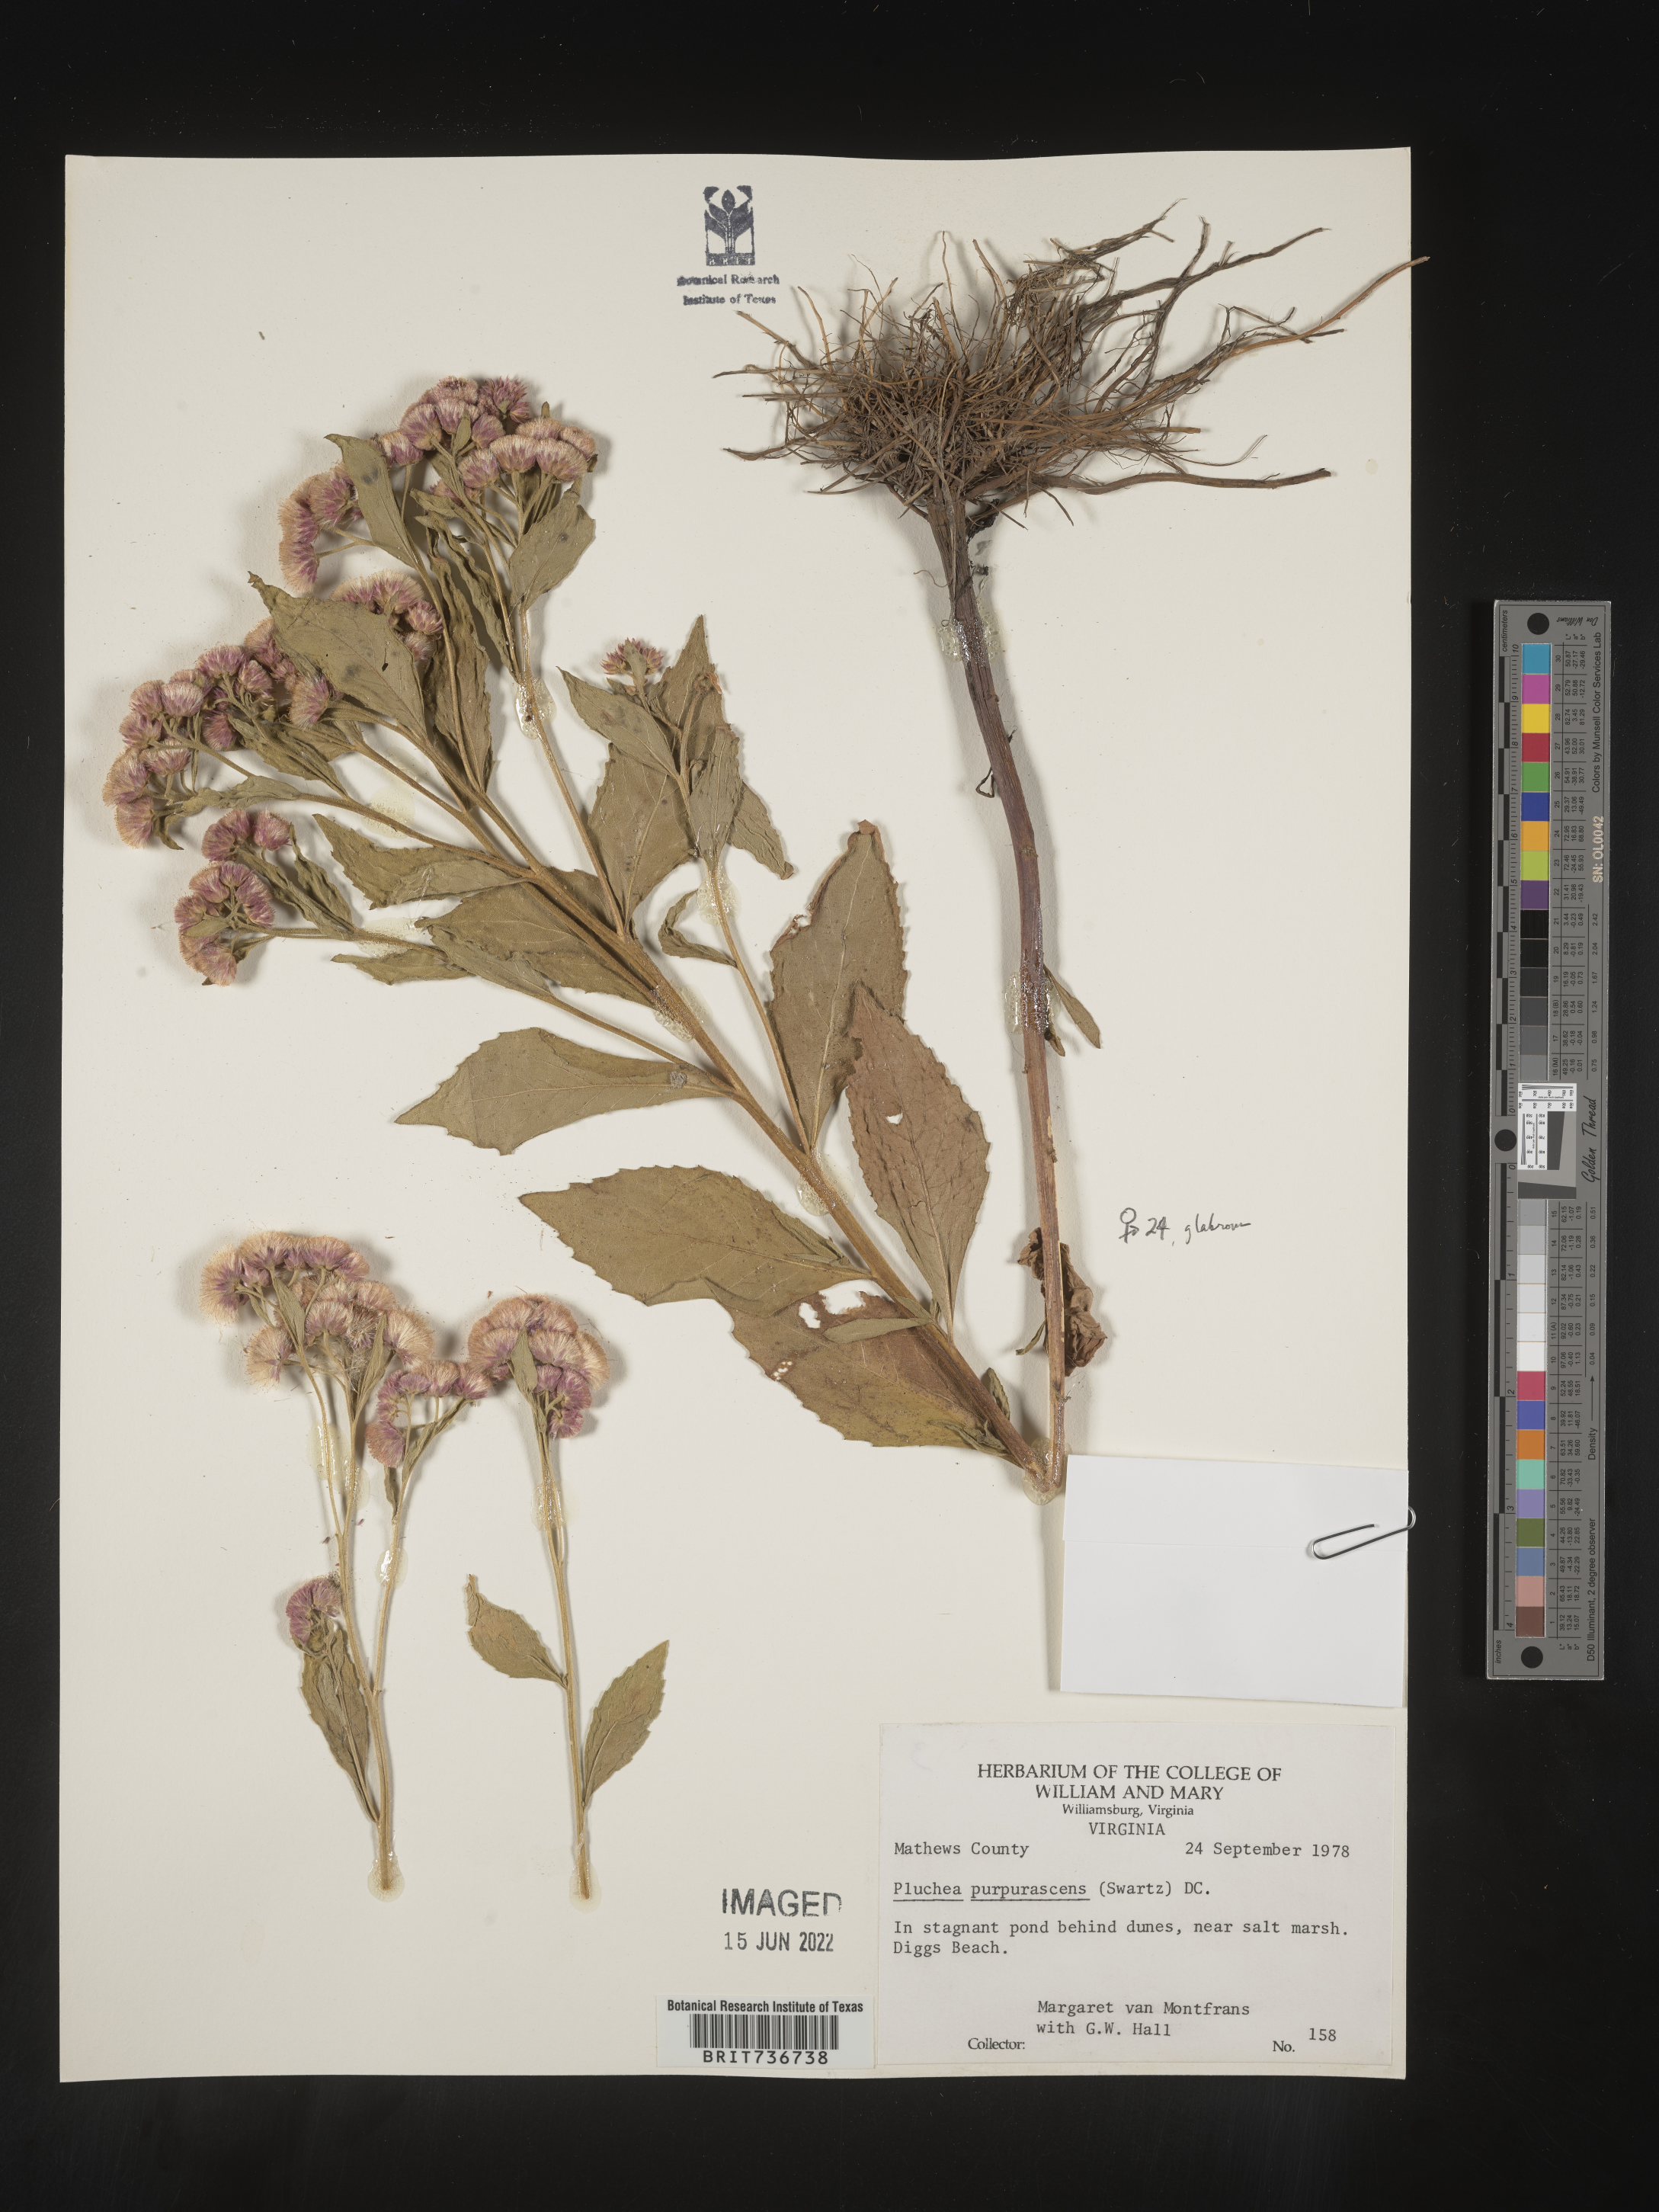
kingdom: Plantae
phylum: Tracheophyta
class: Magnoliopsida
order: Asterales
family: Asteraceae
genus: Pluchea
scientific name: Pluchea odorata
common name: Saltmarsh fleabane
